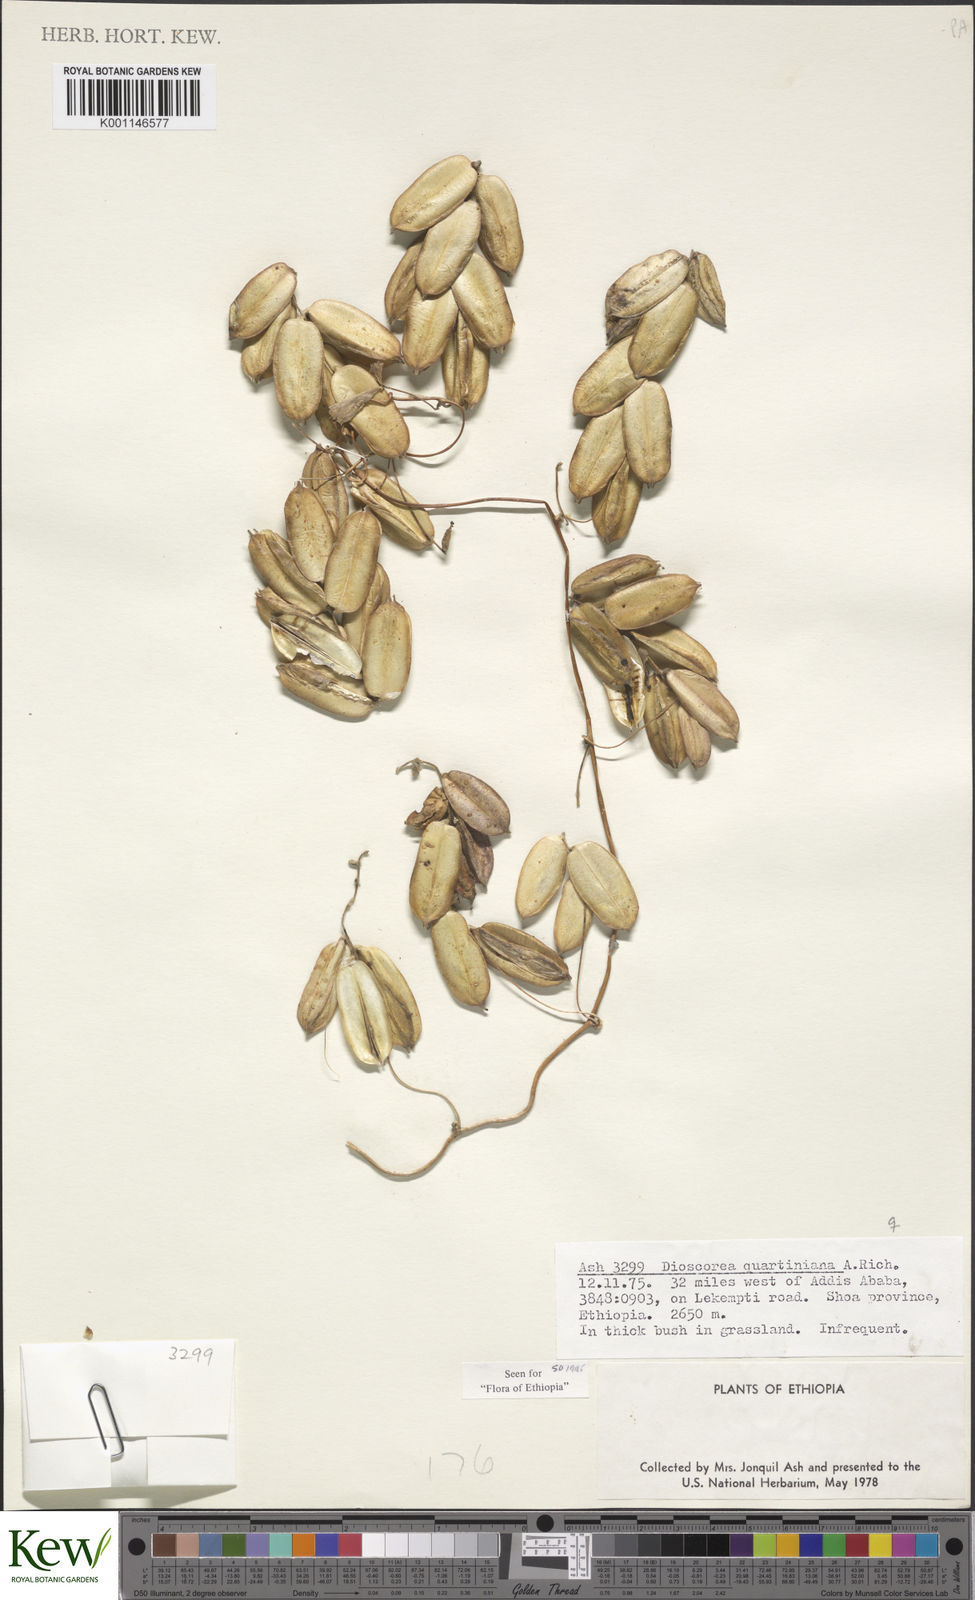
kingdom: Plantae
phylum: Tracheophyta
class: Liliopsida
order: Dioscoreales
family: Dioscoreaceae
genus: Dioscorea
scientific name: Dioscorea quartiniana
